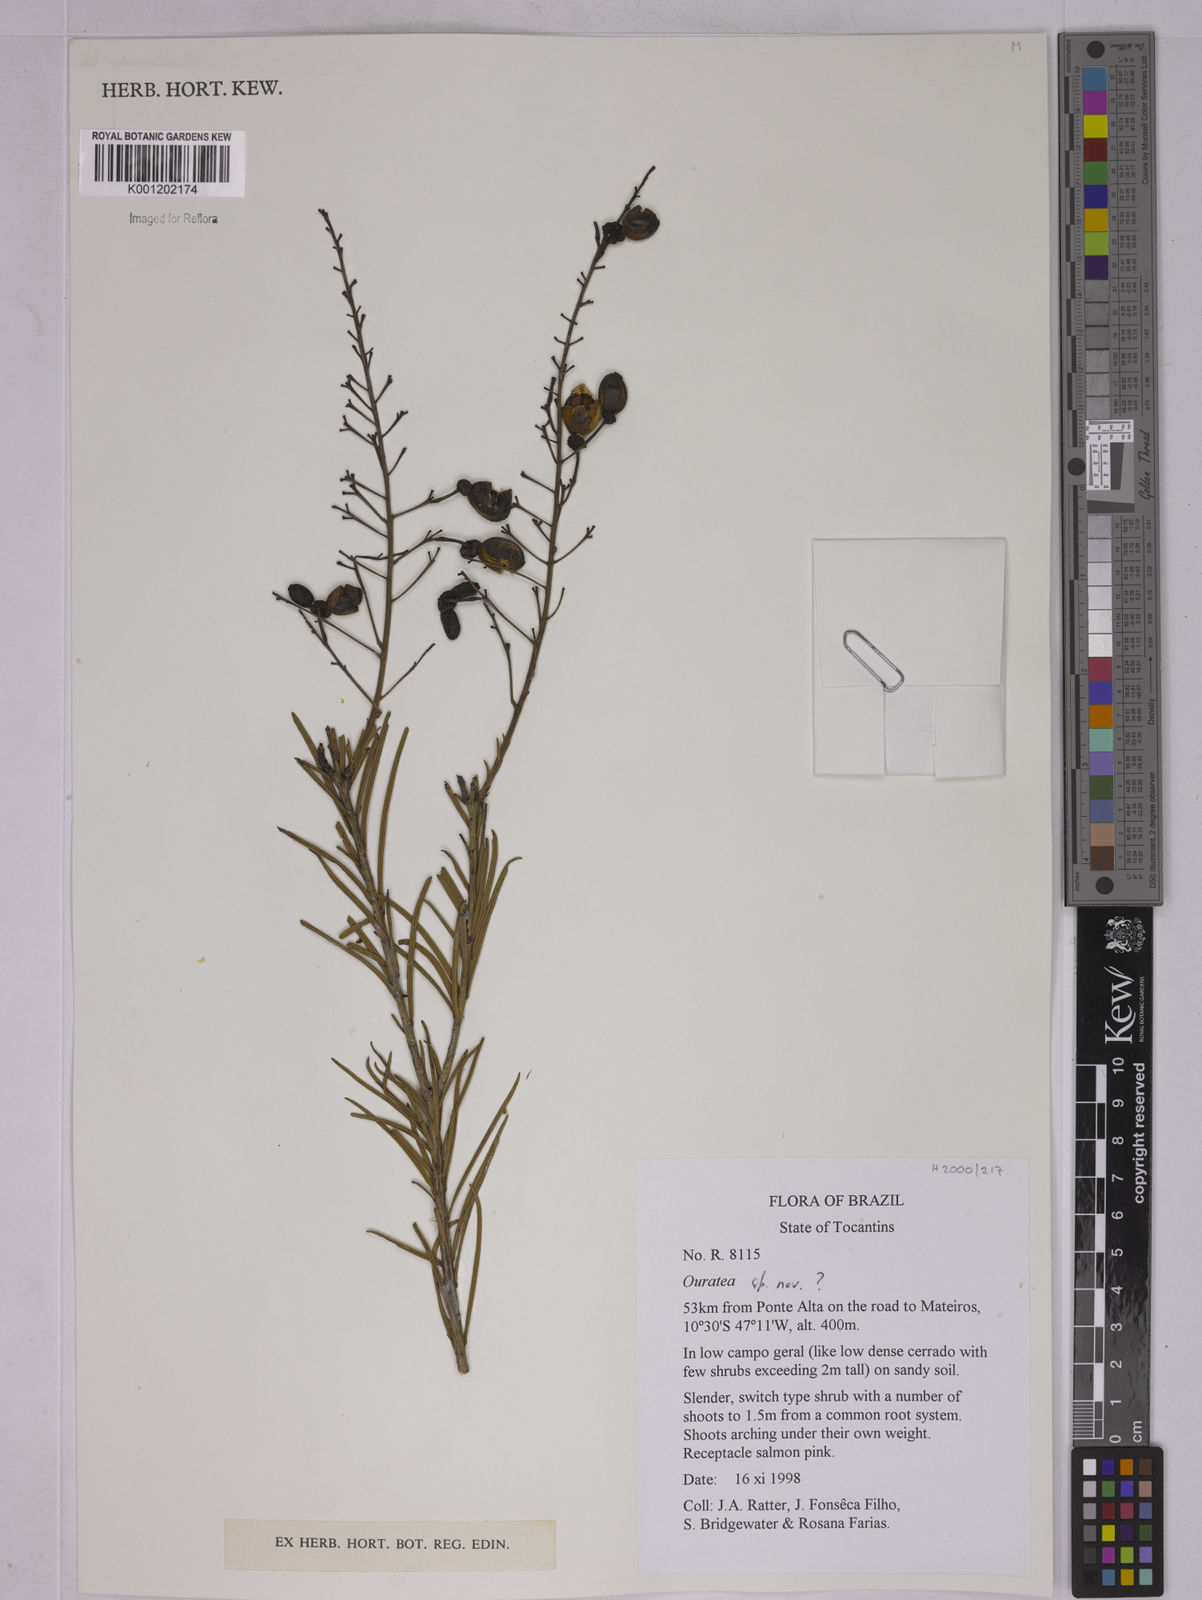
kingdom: Plantae
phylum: Tracheophyta
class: Magnoliopsida
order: Malpighiales
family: Ochnaceae
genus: Ouratea
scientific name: Ouratea
